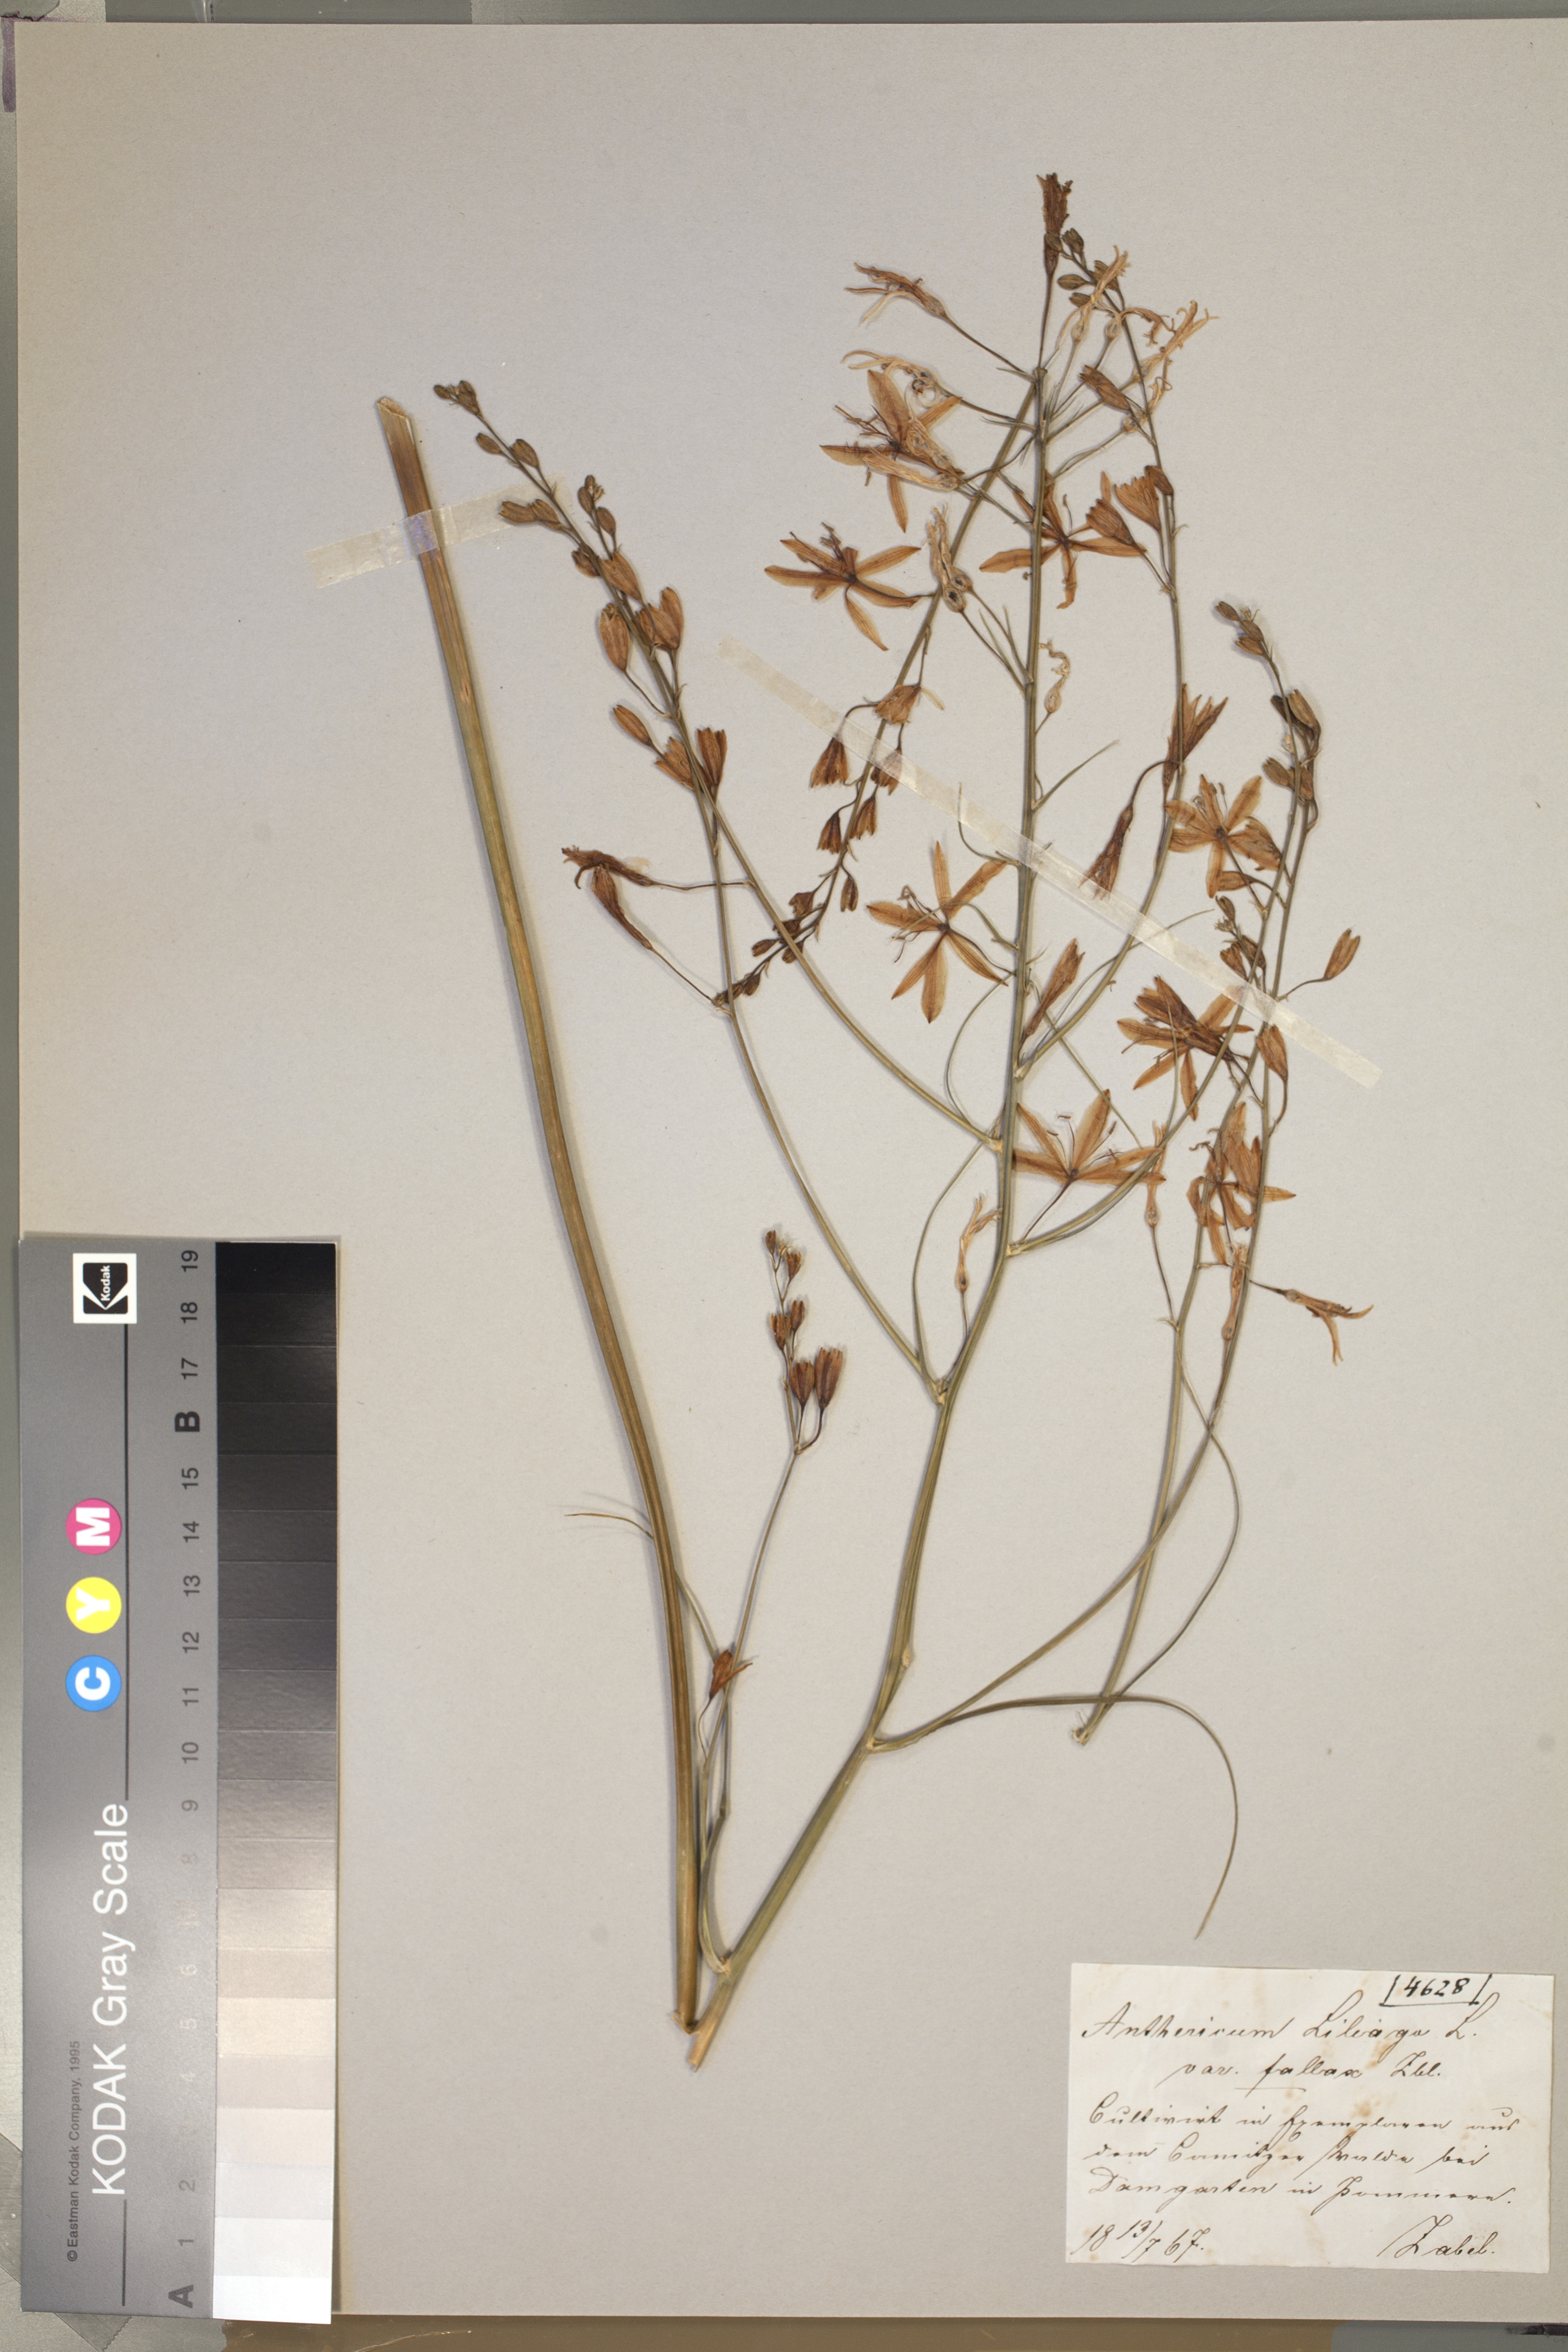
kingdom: Plantae
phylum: Tracheophyta
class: Liliopsida
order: Asparagales
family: Asparagaceae
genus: Anthericum
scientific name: Anthericum liliago
